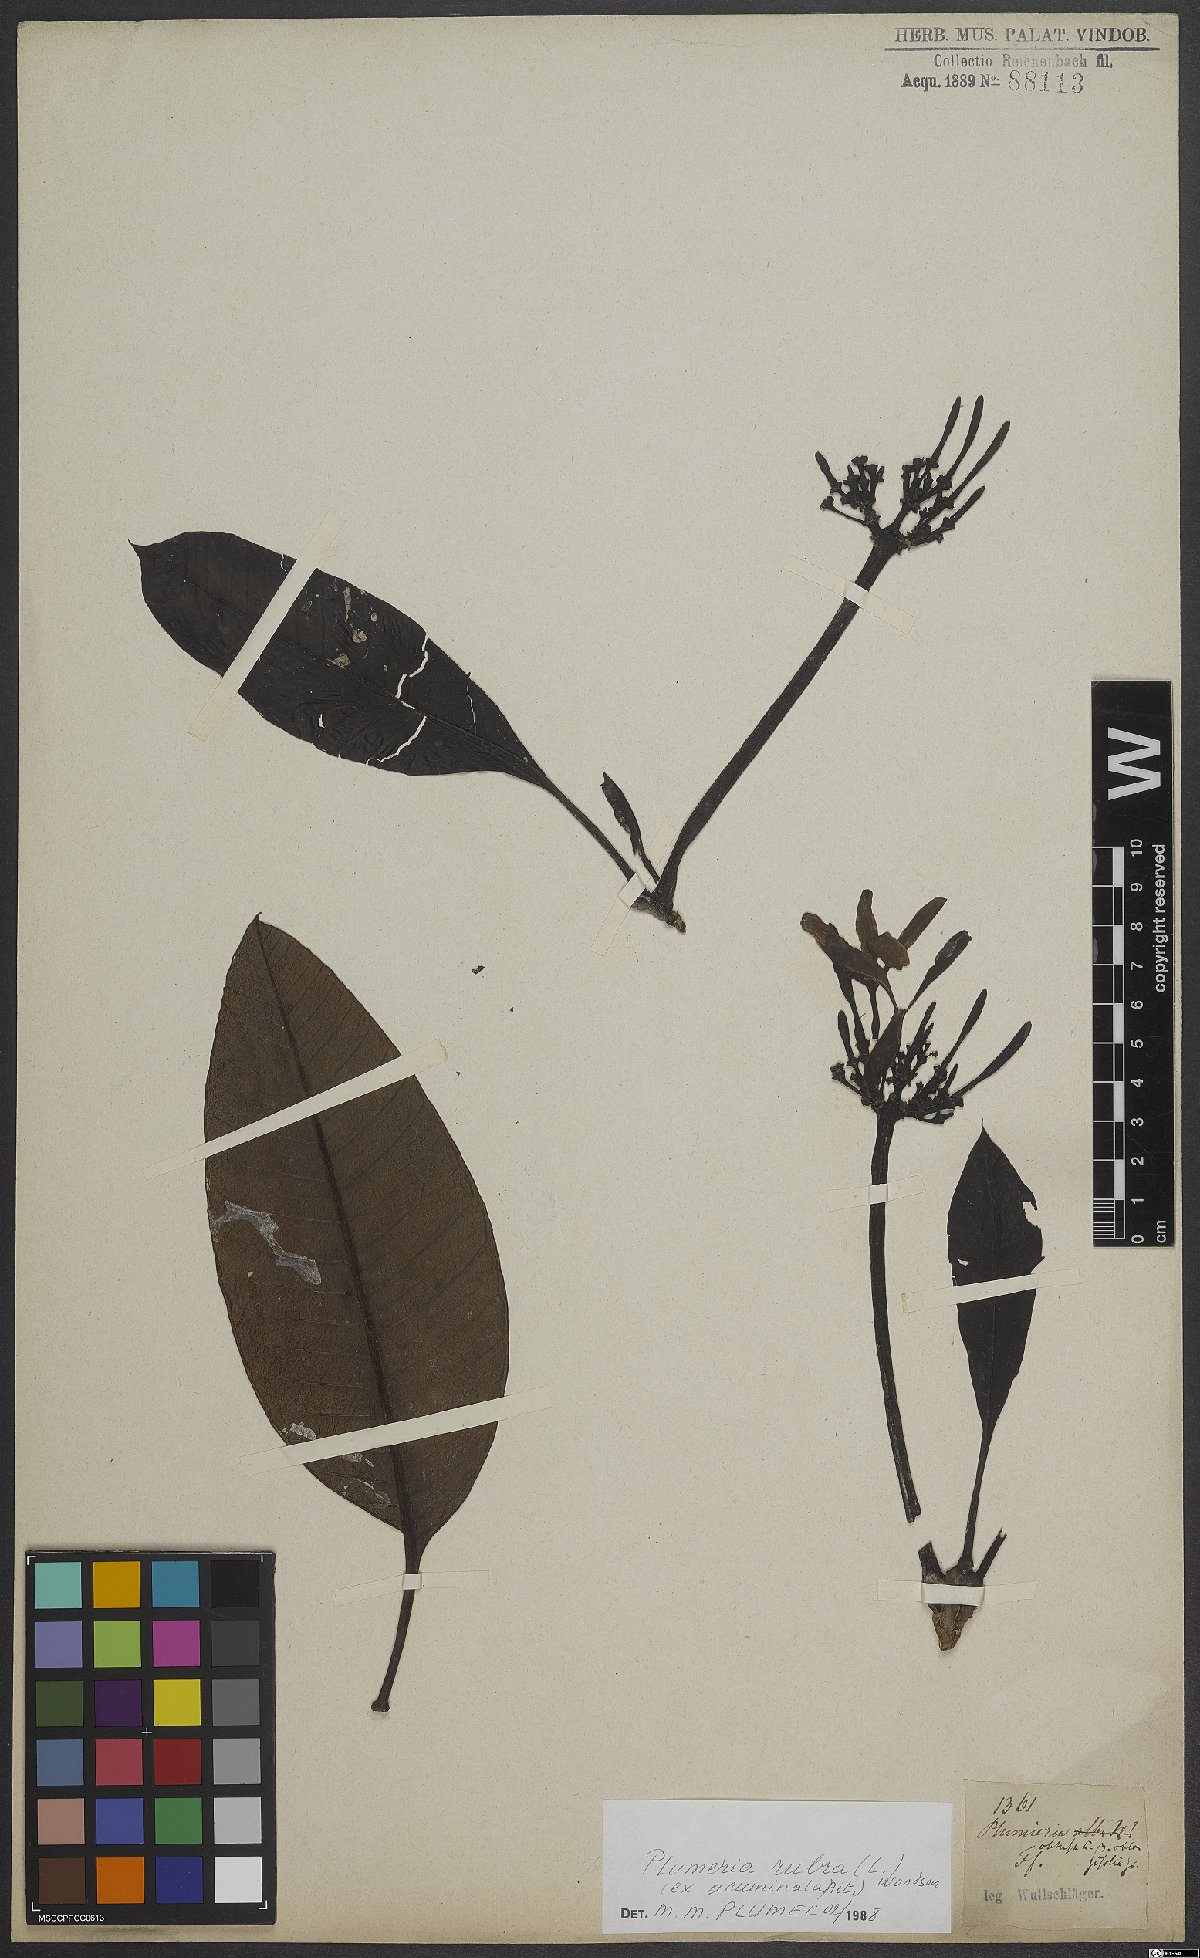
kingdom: Plantae
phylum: Tracheophyta
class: Magnoliopsida
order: Gentianales
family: Apocynaceae
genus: Plumeria
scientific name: Plumeria rubra
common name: Pagoda-tree
